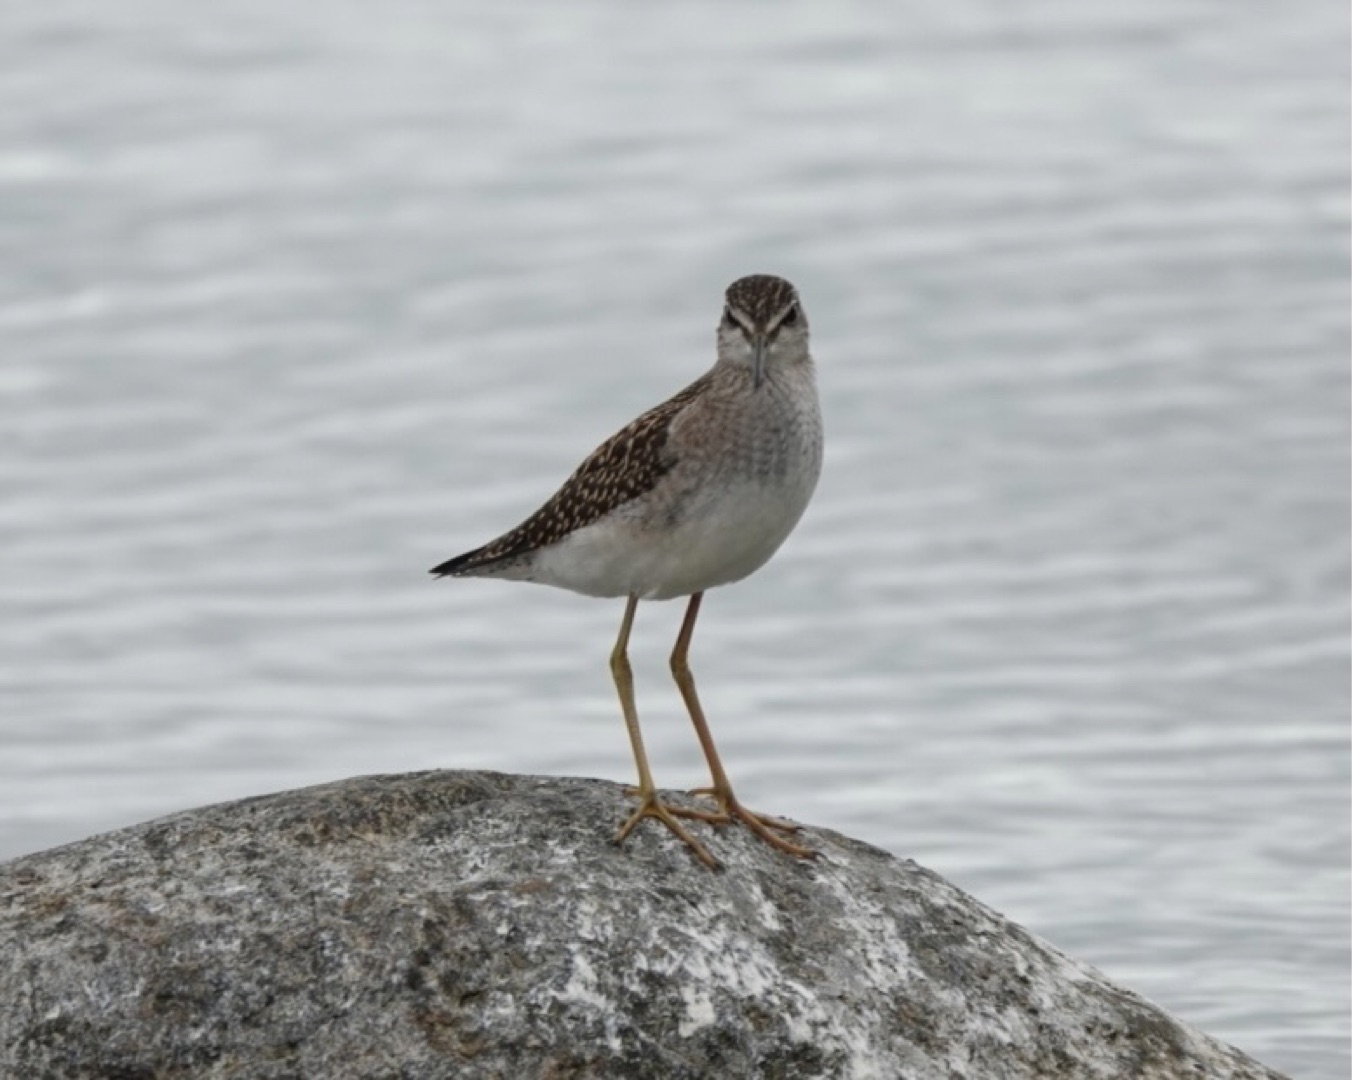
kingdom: Animalia
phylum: Chordata
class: Aves
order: Charadriiformes
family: Scolopacidae
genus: Tringa
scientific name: Tringa glareola
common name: Tinksmed
